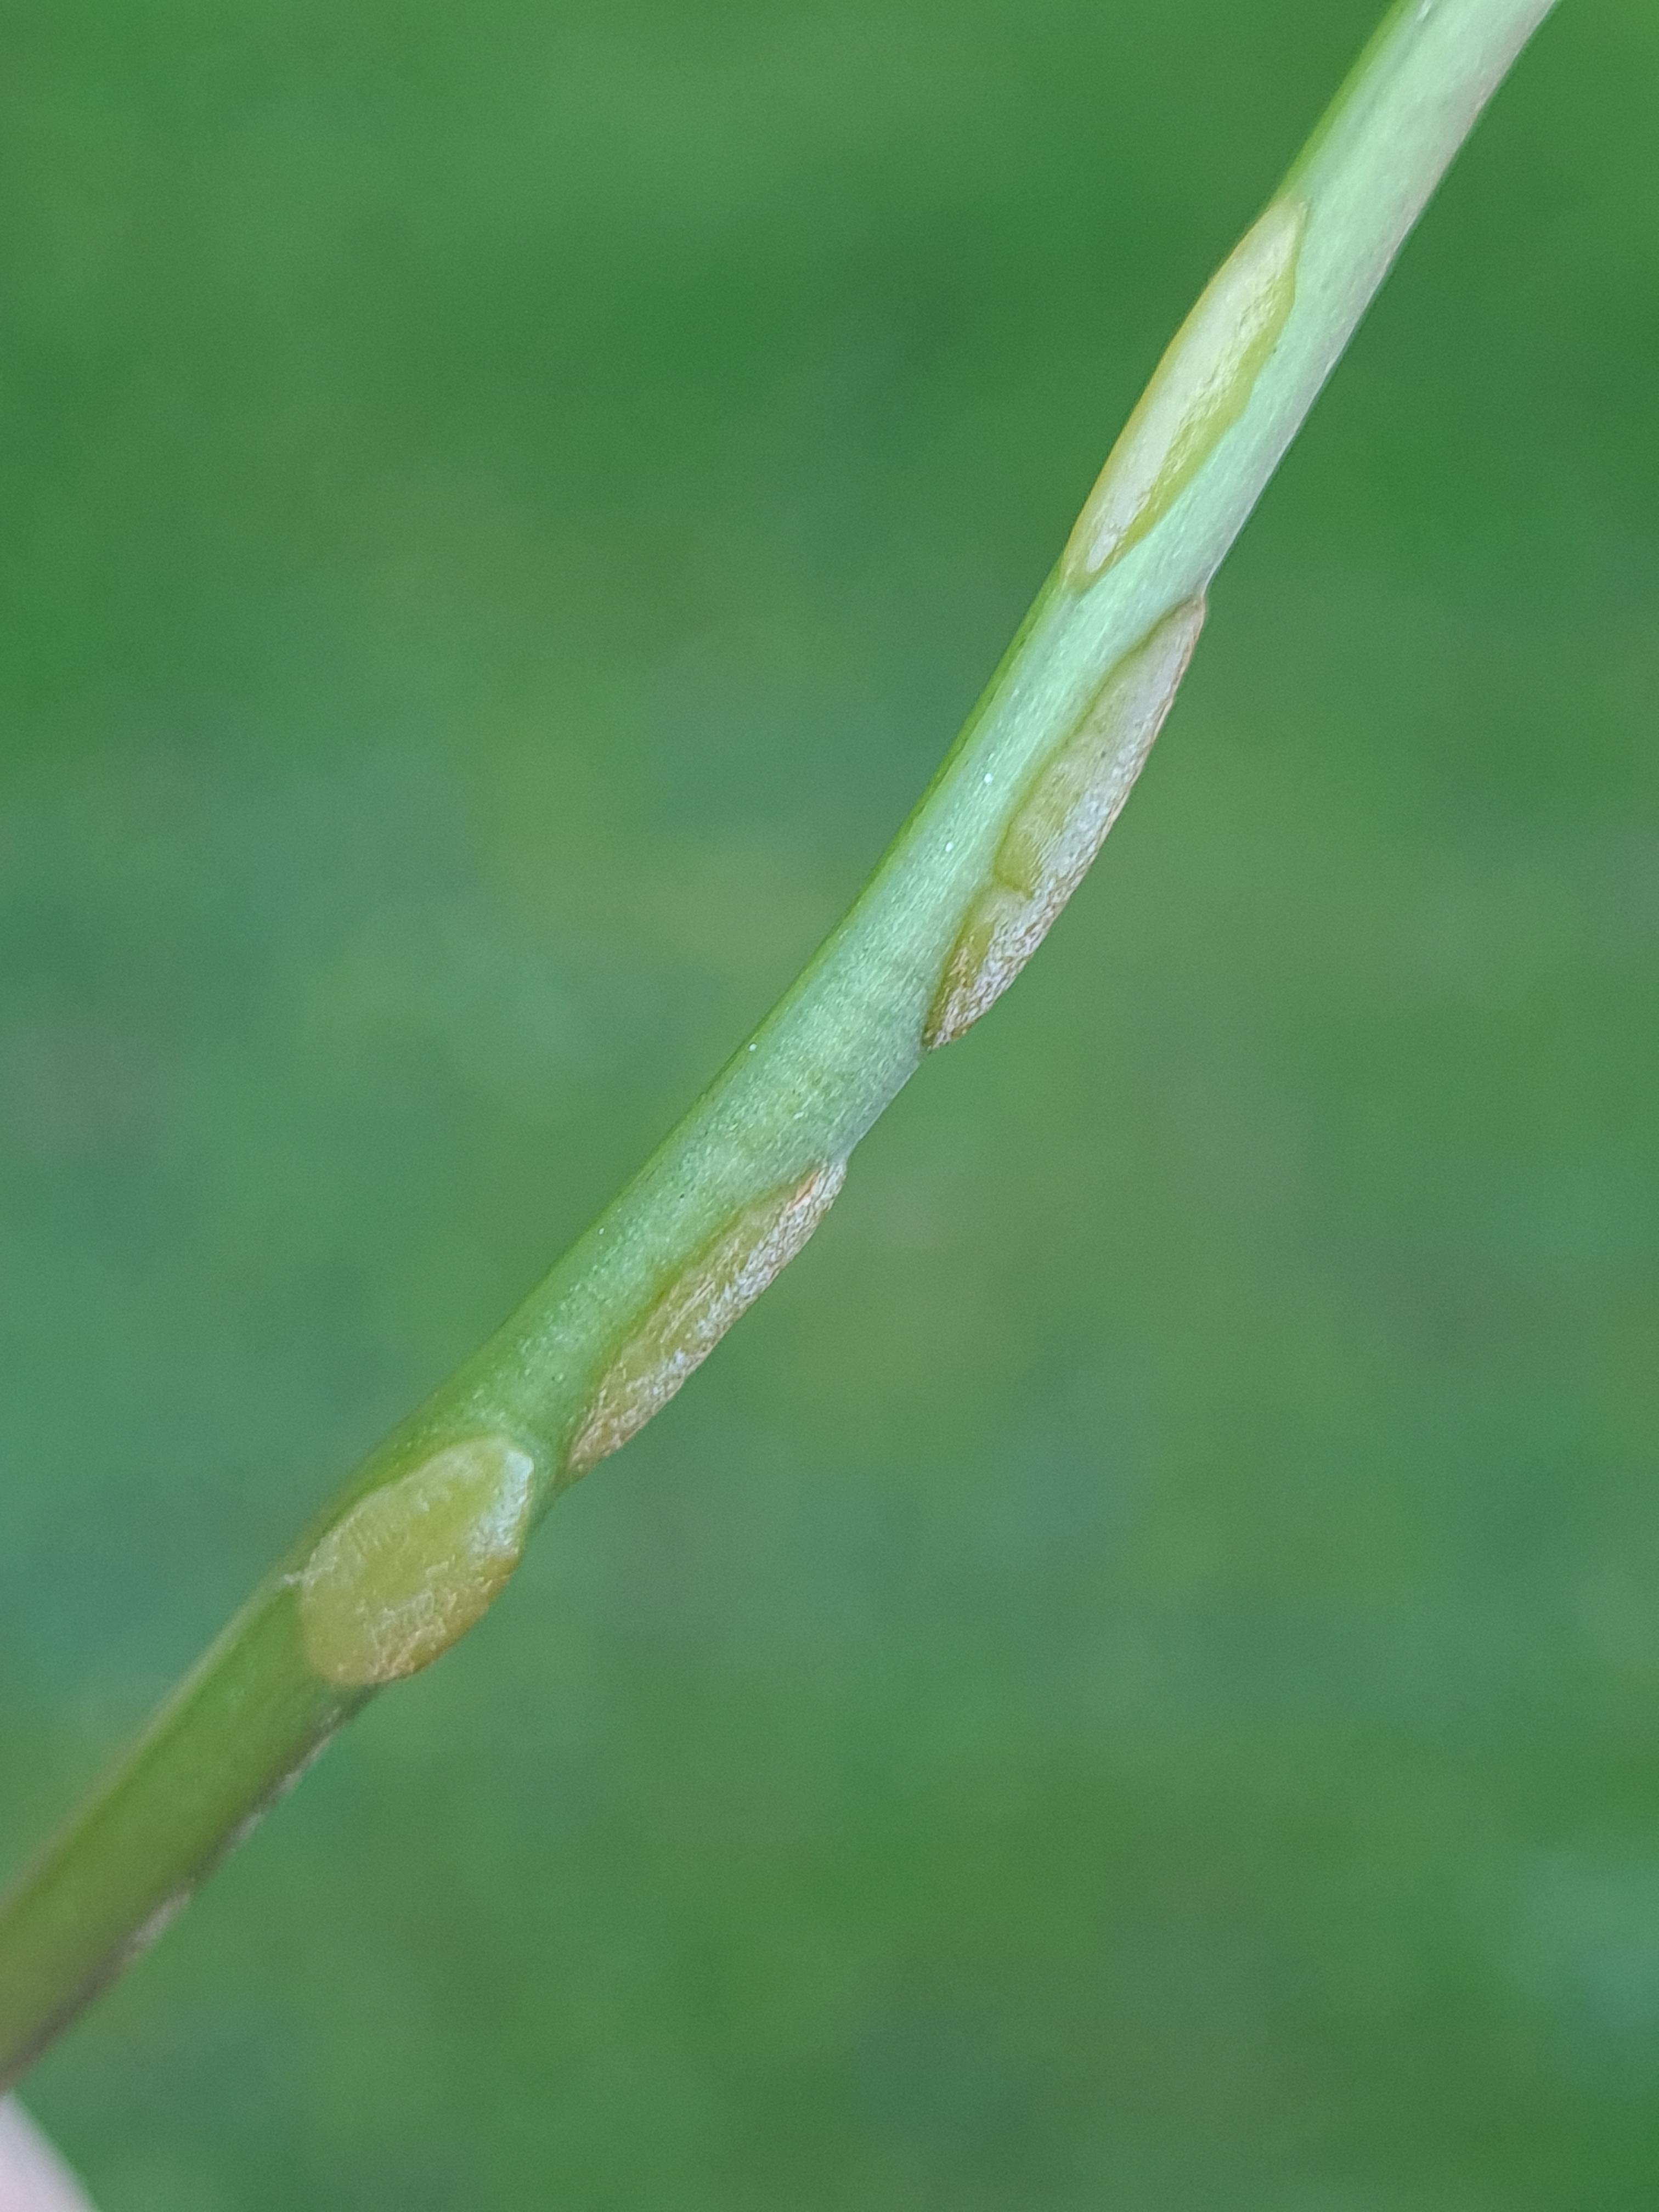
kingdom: Fungi
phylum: Ascomycota
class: Taphrinomycetes
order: Taphrinales
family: Taphrinaceae
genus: Protomyces
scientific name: Protomyces macrosporus
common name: skvalderkål-vablesæk
